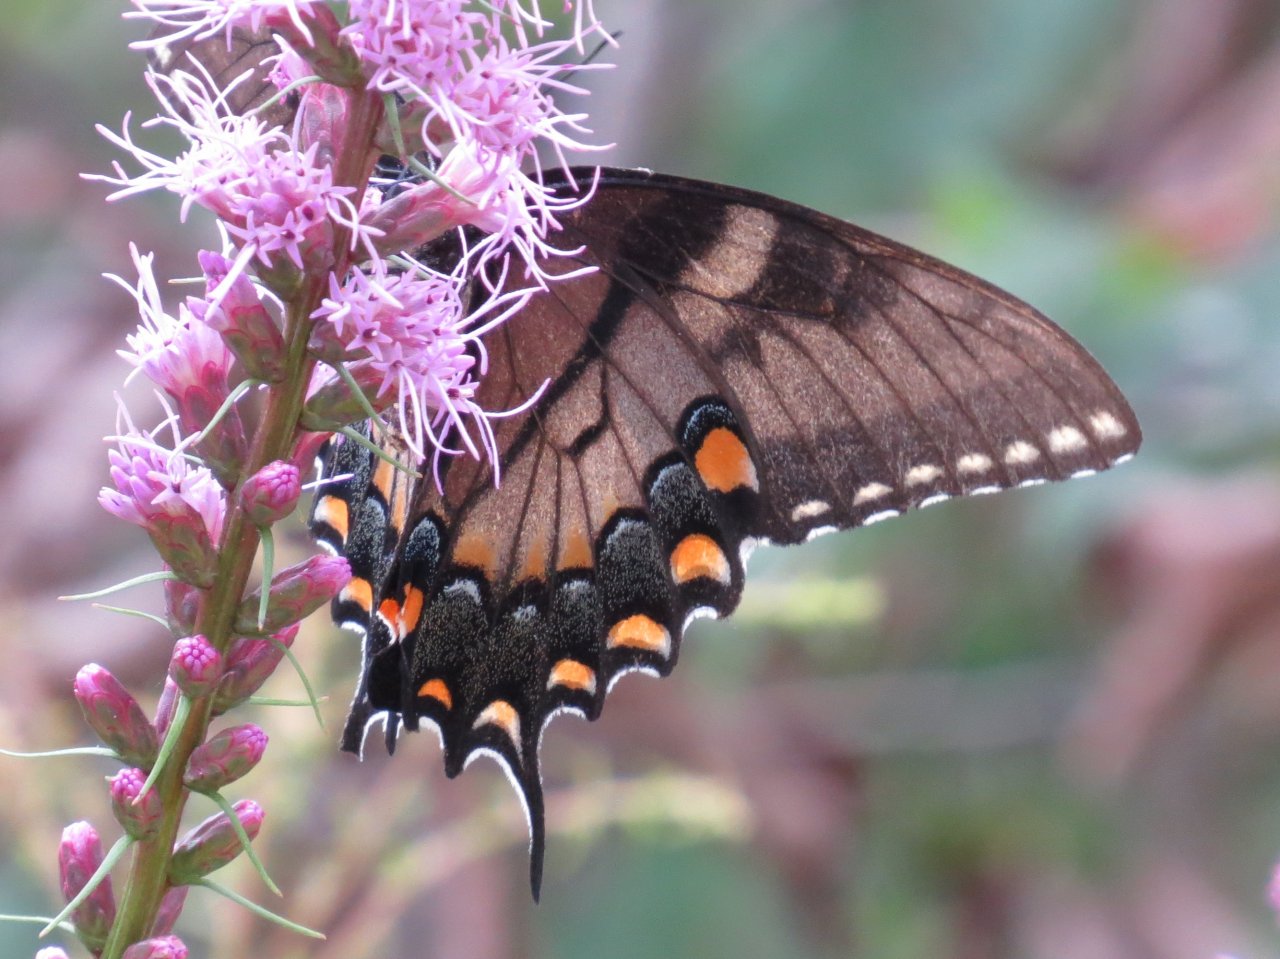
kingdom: Animalia
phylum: Arthropoda
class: Insecta
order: Lepidoptera
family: Papilionidae
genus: Pterourus
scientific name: Pterourus glaucus
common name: Eastern Tiger Swallowtail
